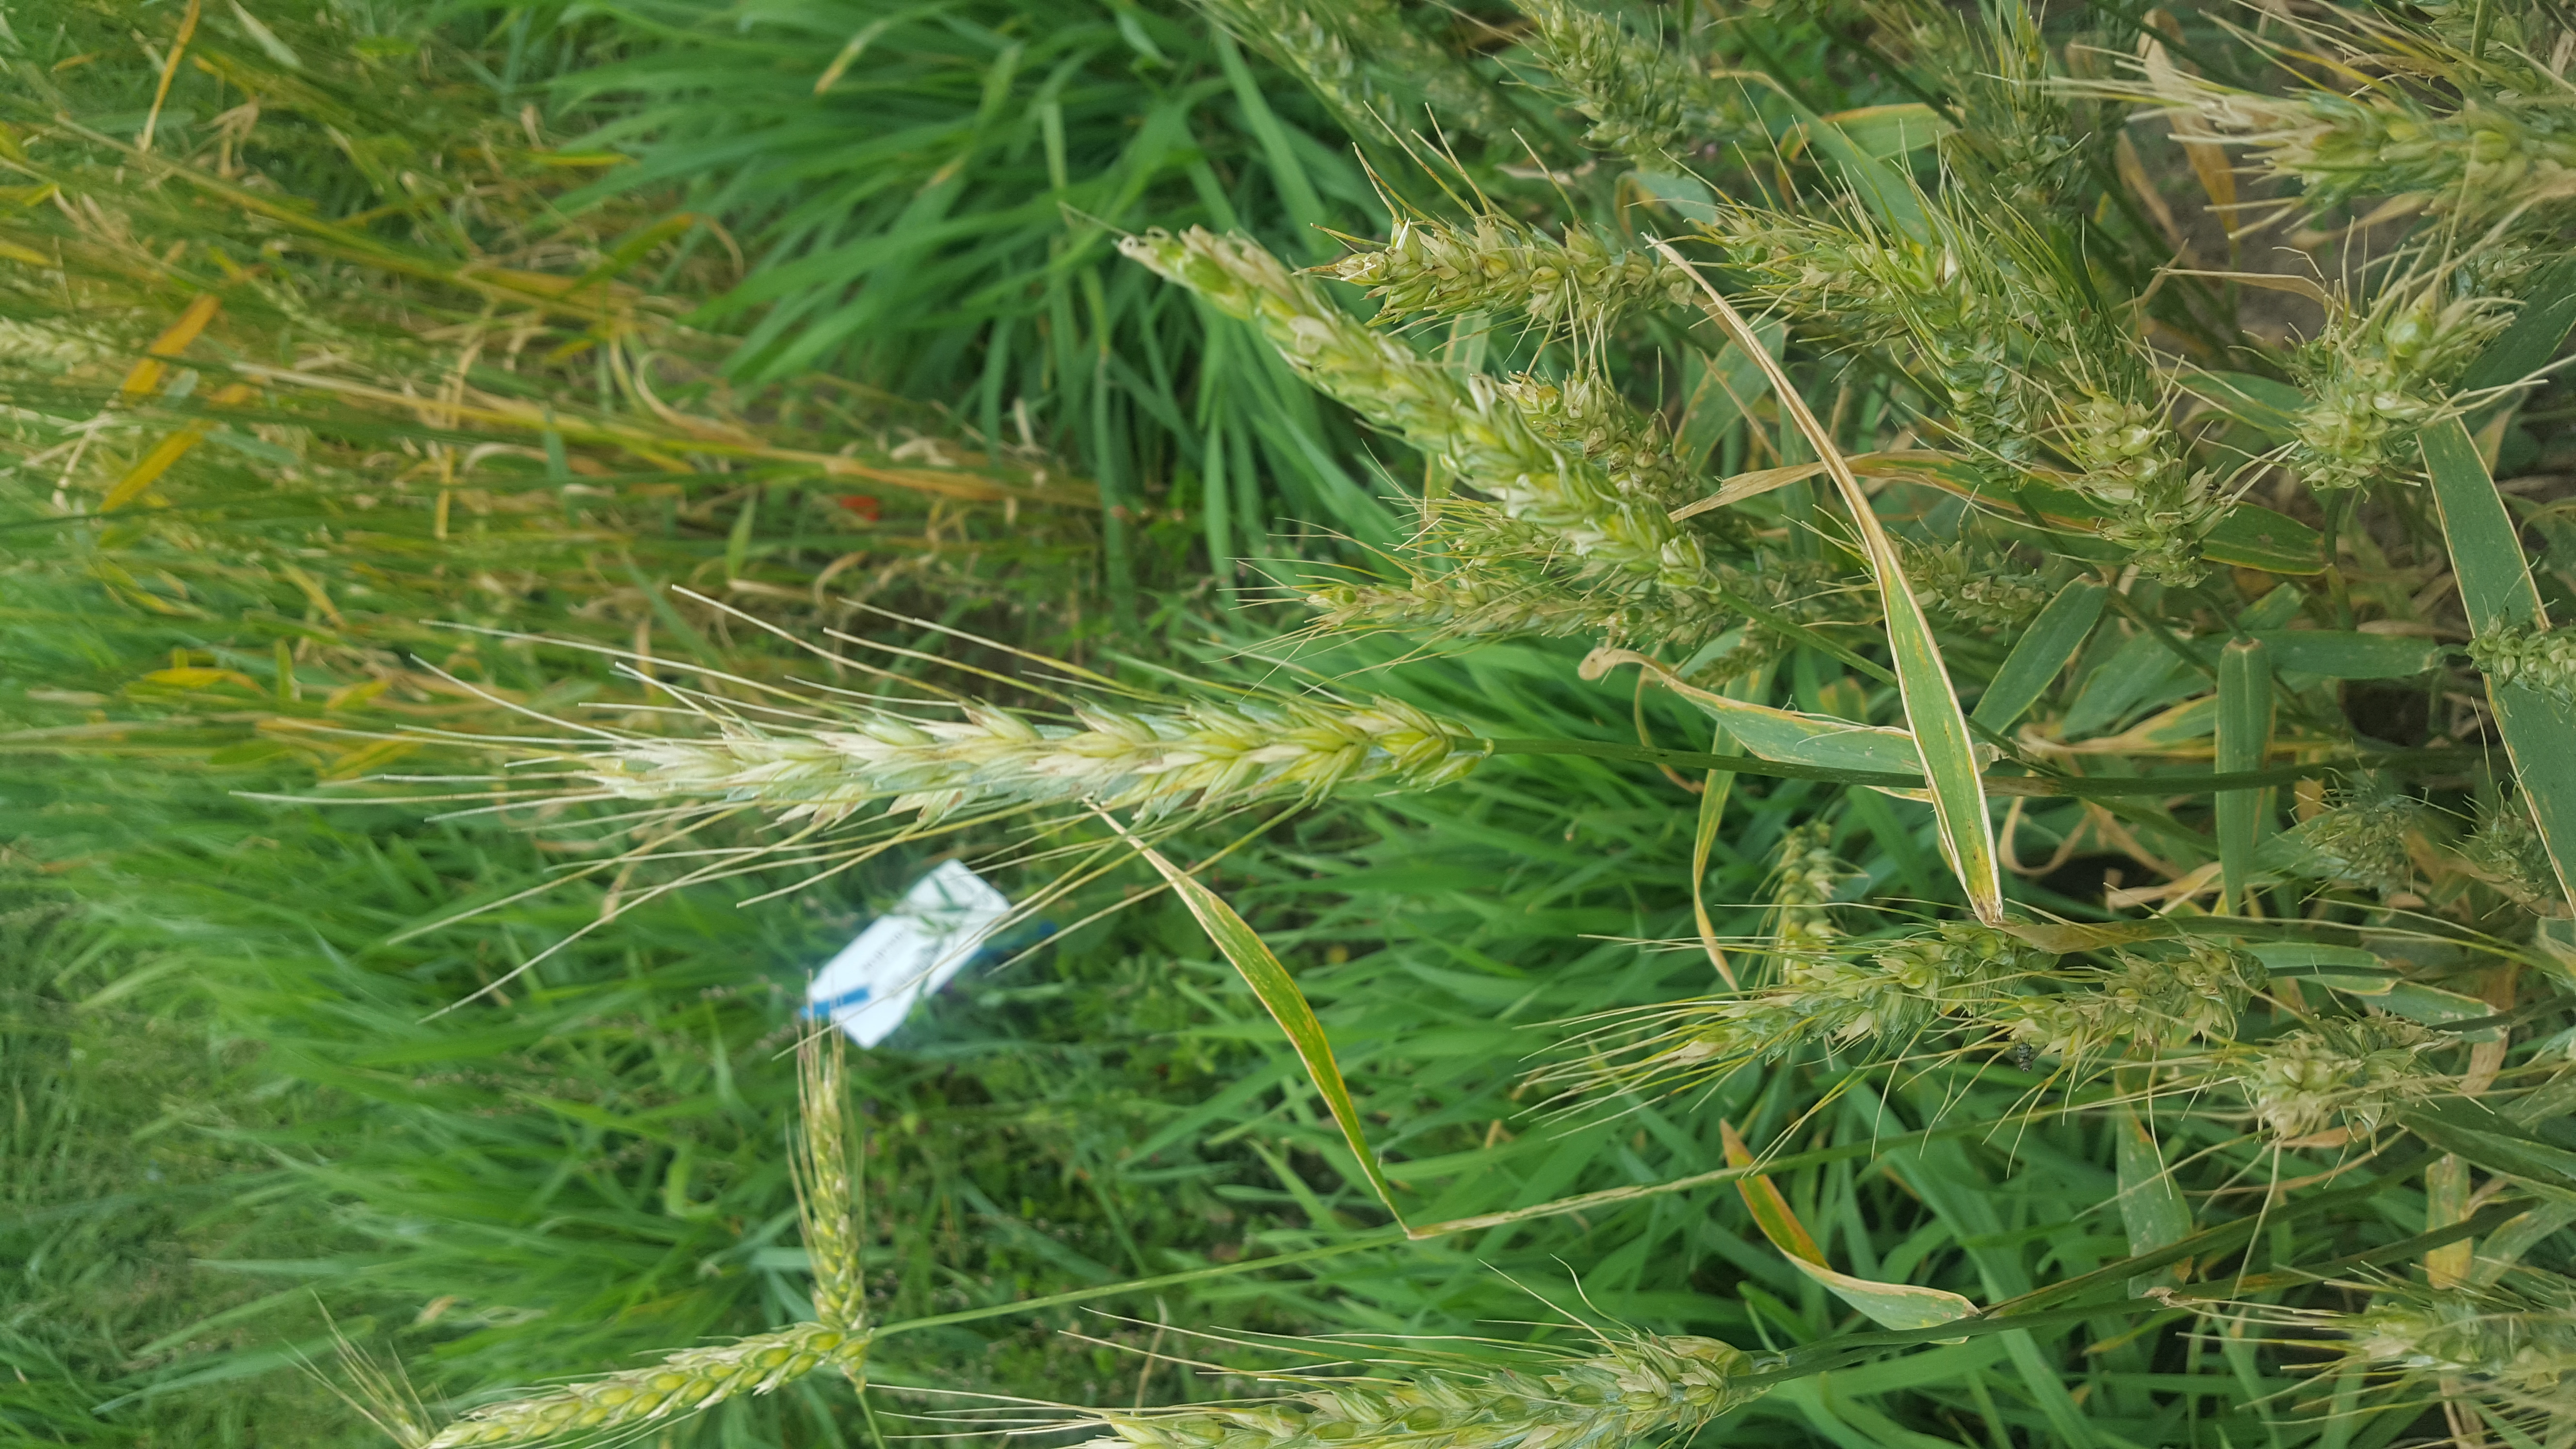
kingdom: Plantae
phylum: Tracheophyta
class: Liliopsida
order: Poales
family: Poaceae
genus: Triticum
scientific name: Triticum aestivum
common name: Common wheat
